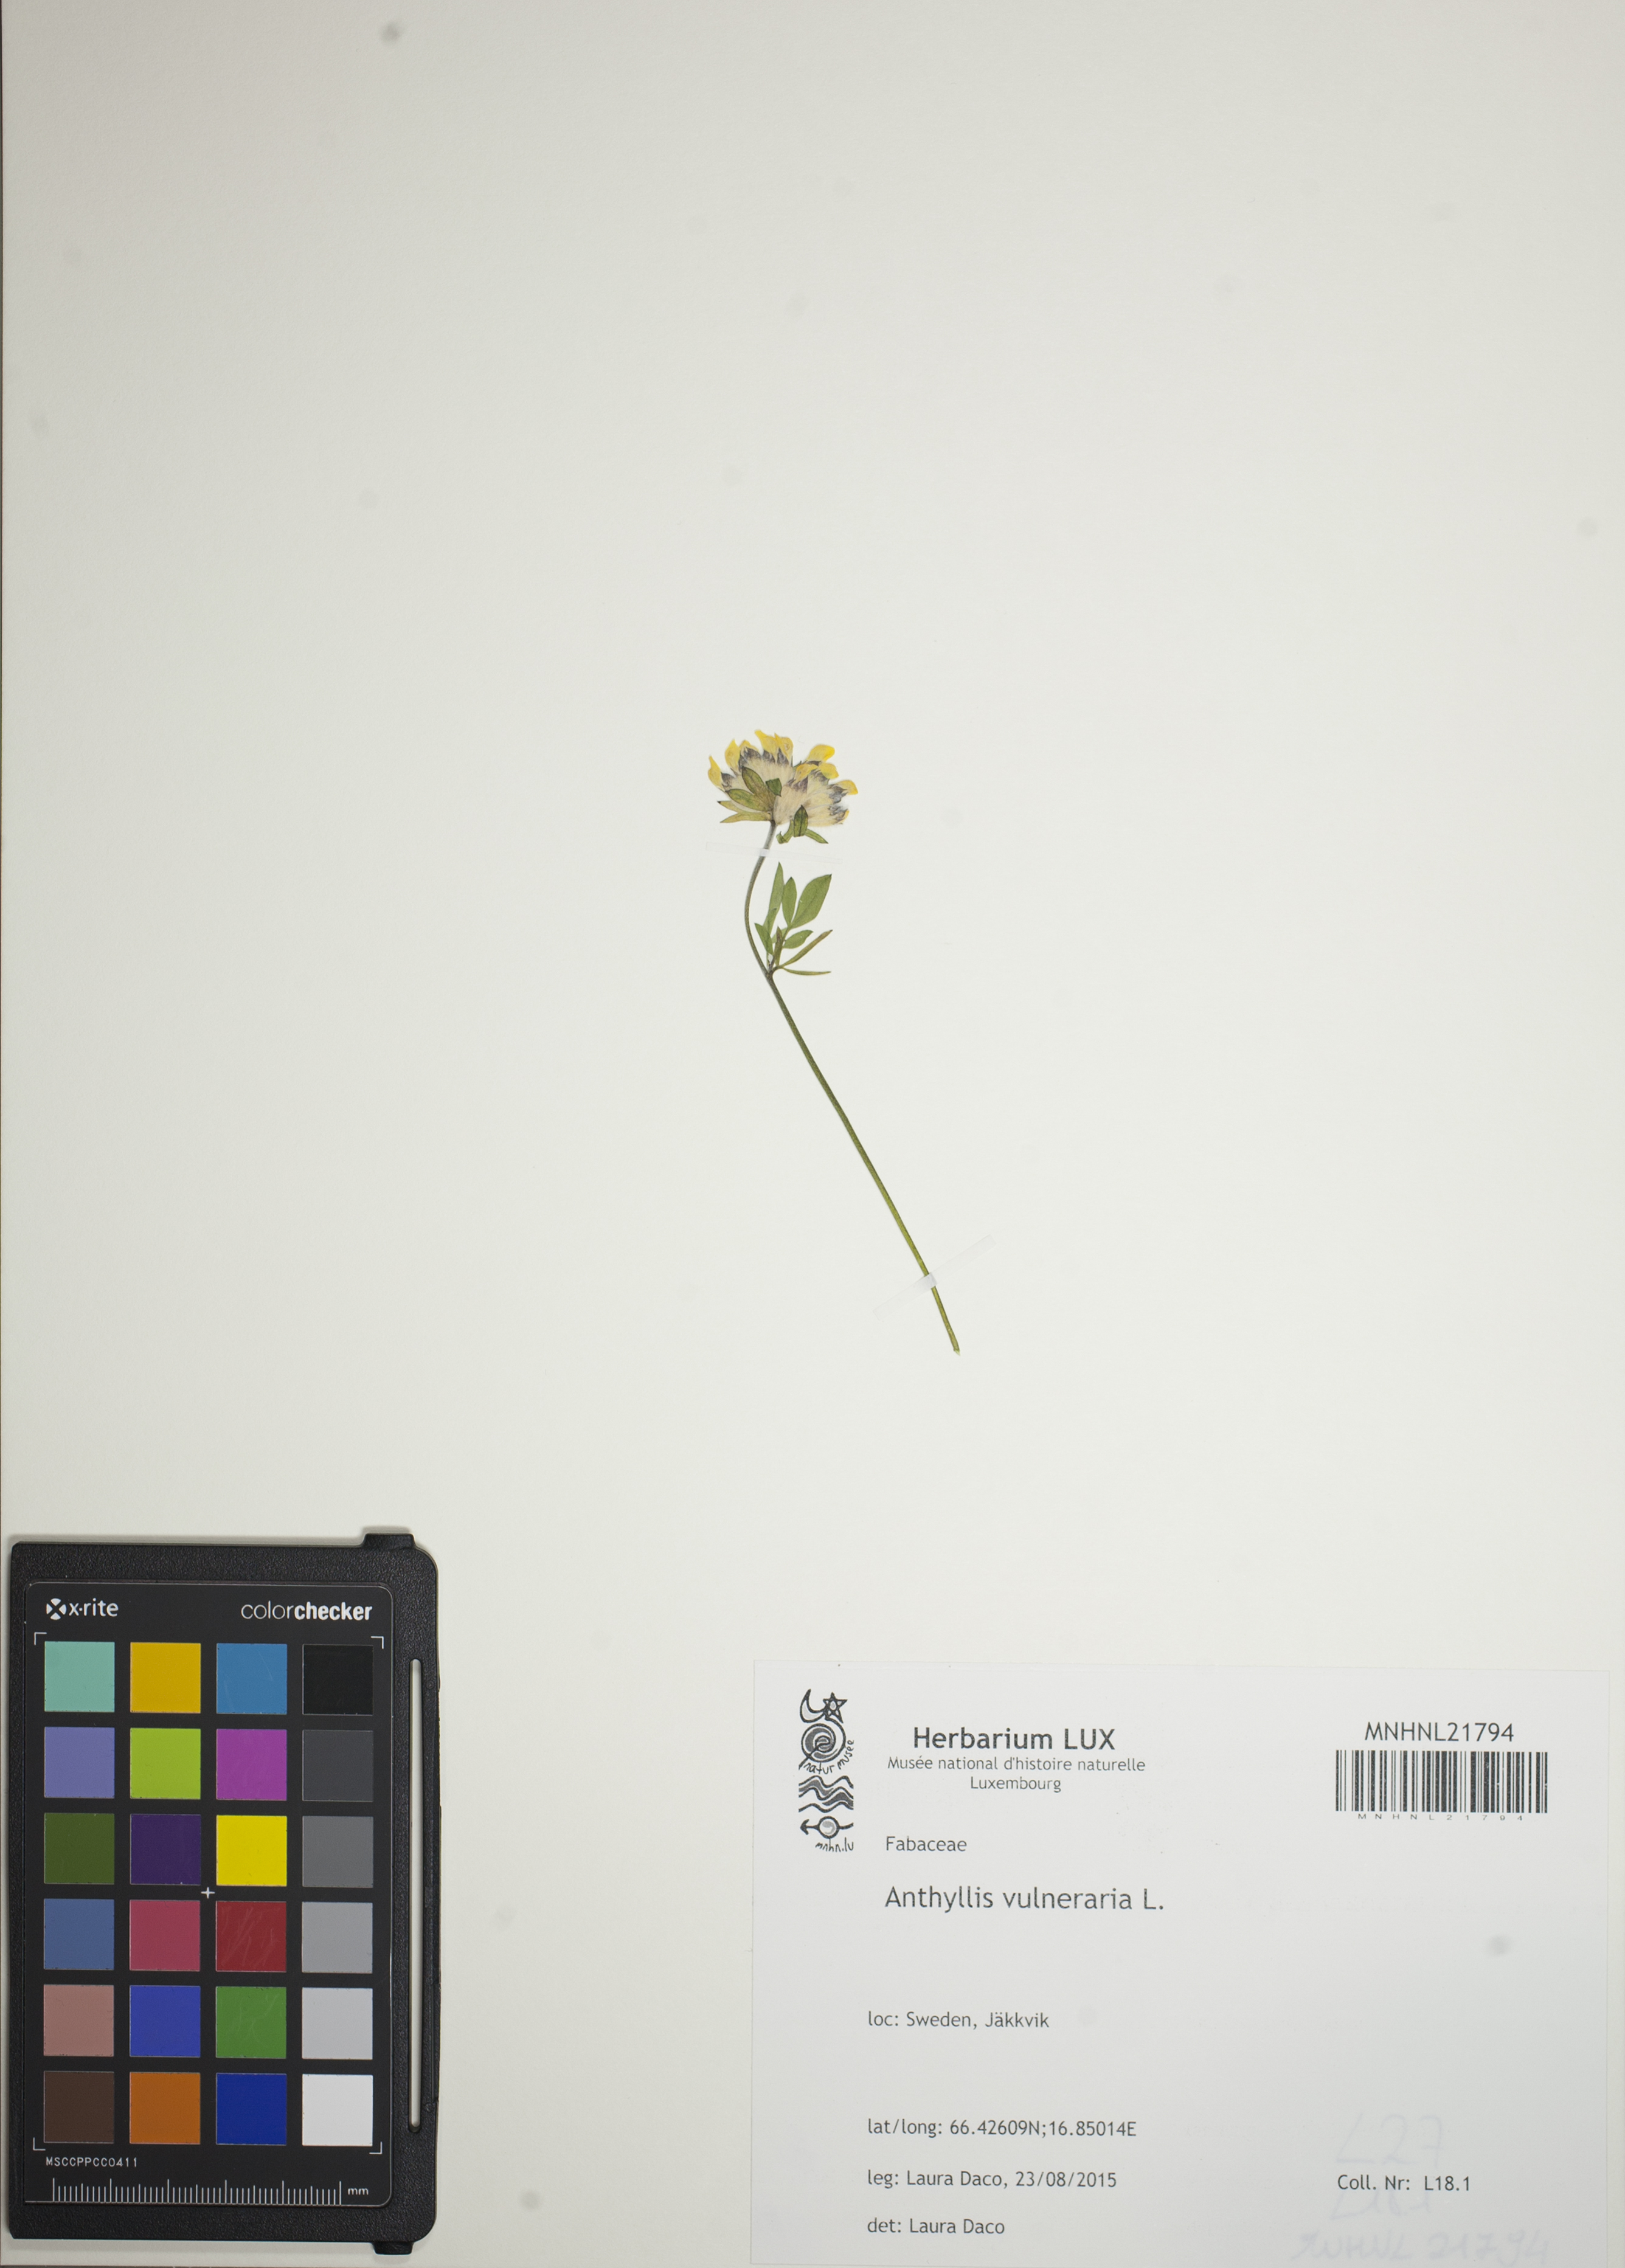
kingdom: Plantae
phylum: Tracheophyta
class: Magnoliopsida
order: Fabales
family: Fabaceae
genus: Anthyllis
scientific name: Anthyllis vulneraria
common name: Kidney vetch
